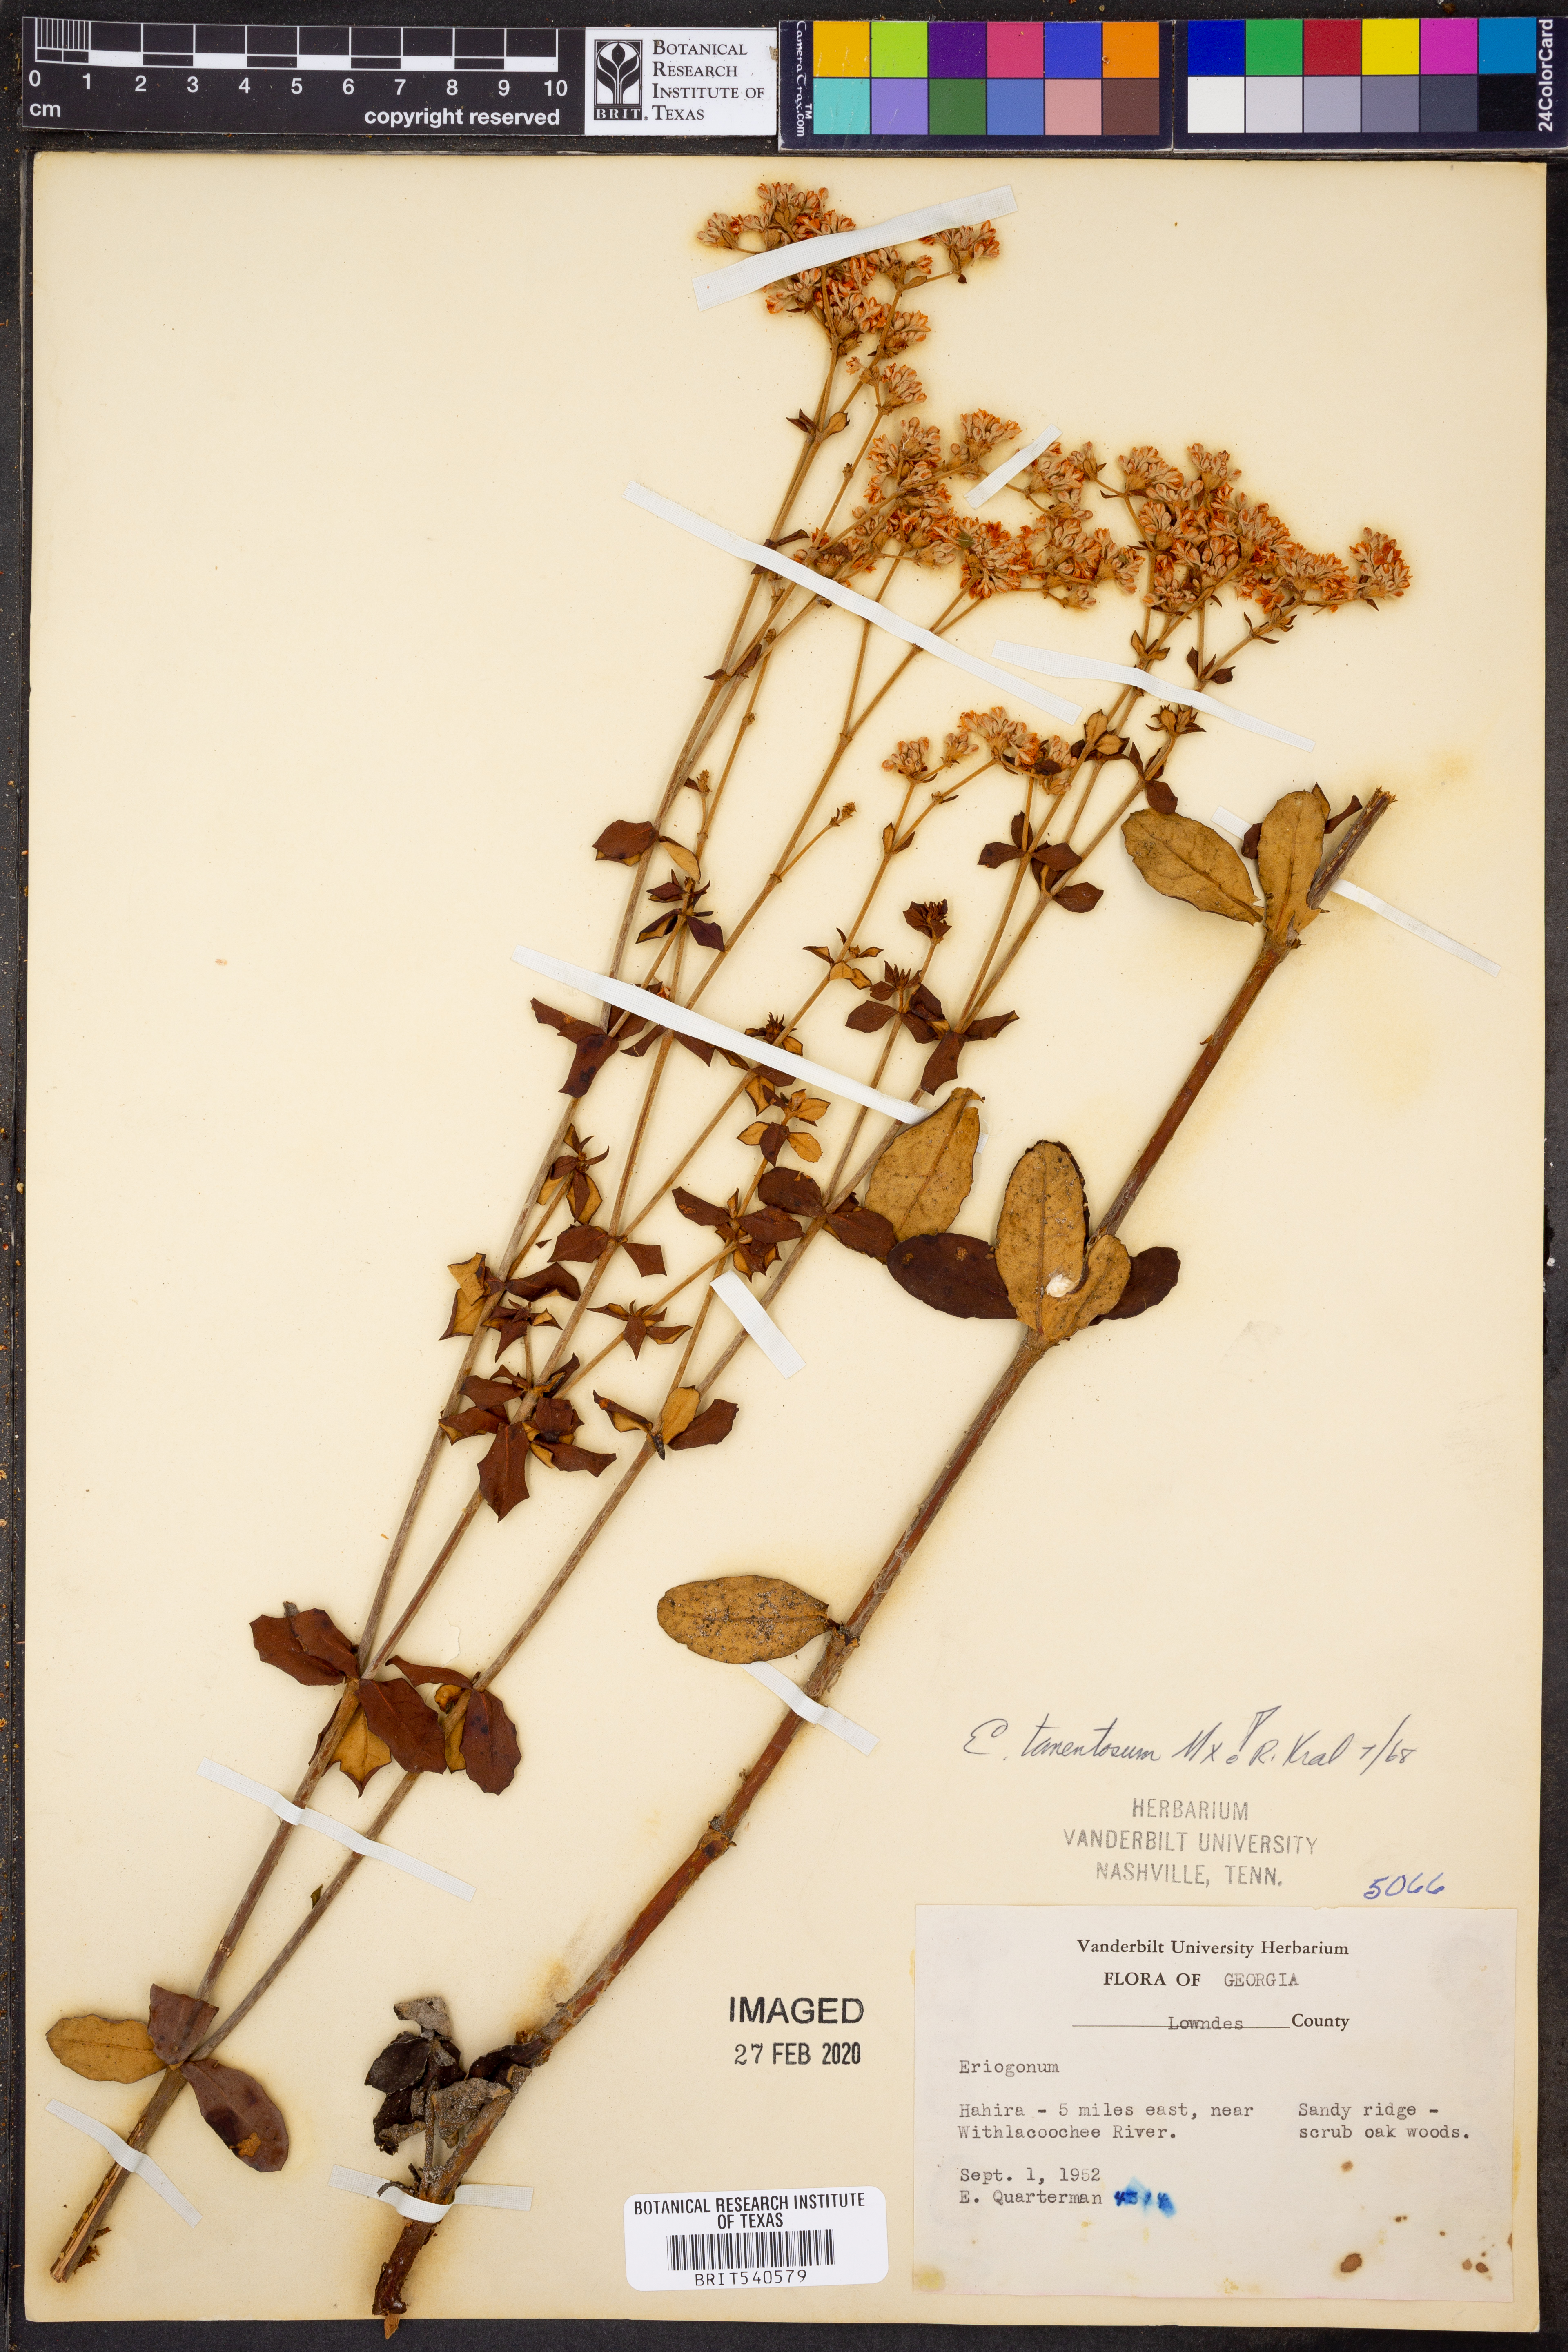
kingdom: Plantae
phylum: Tracheophyta
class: Magnoliopsida
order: Caryophyllales
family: Polygonaceae
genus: Eriogonum
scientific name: Eriogonum tomentosum
